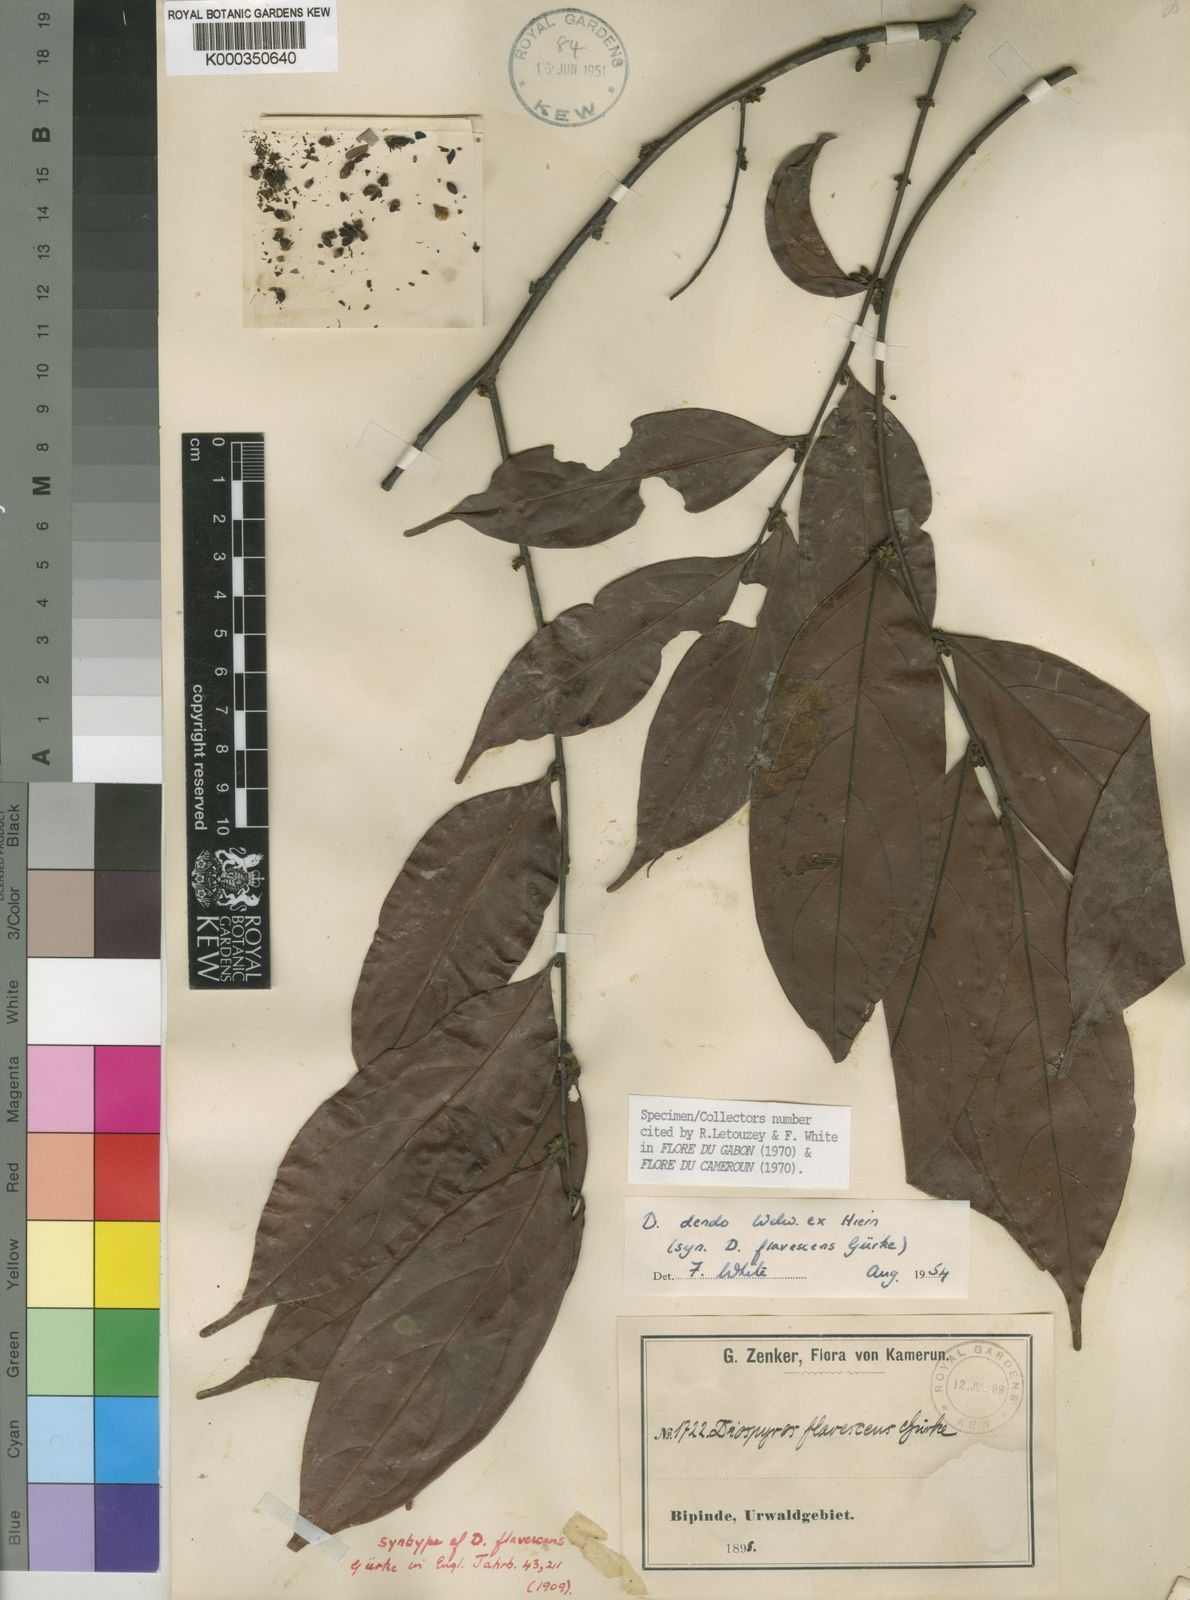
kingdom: Plantae
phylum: Tracheophyta
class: Magnoliopsida
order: Ericales
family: Ebenaceae
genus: Diospyros
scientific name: Diospyros dendo
